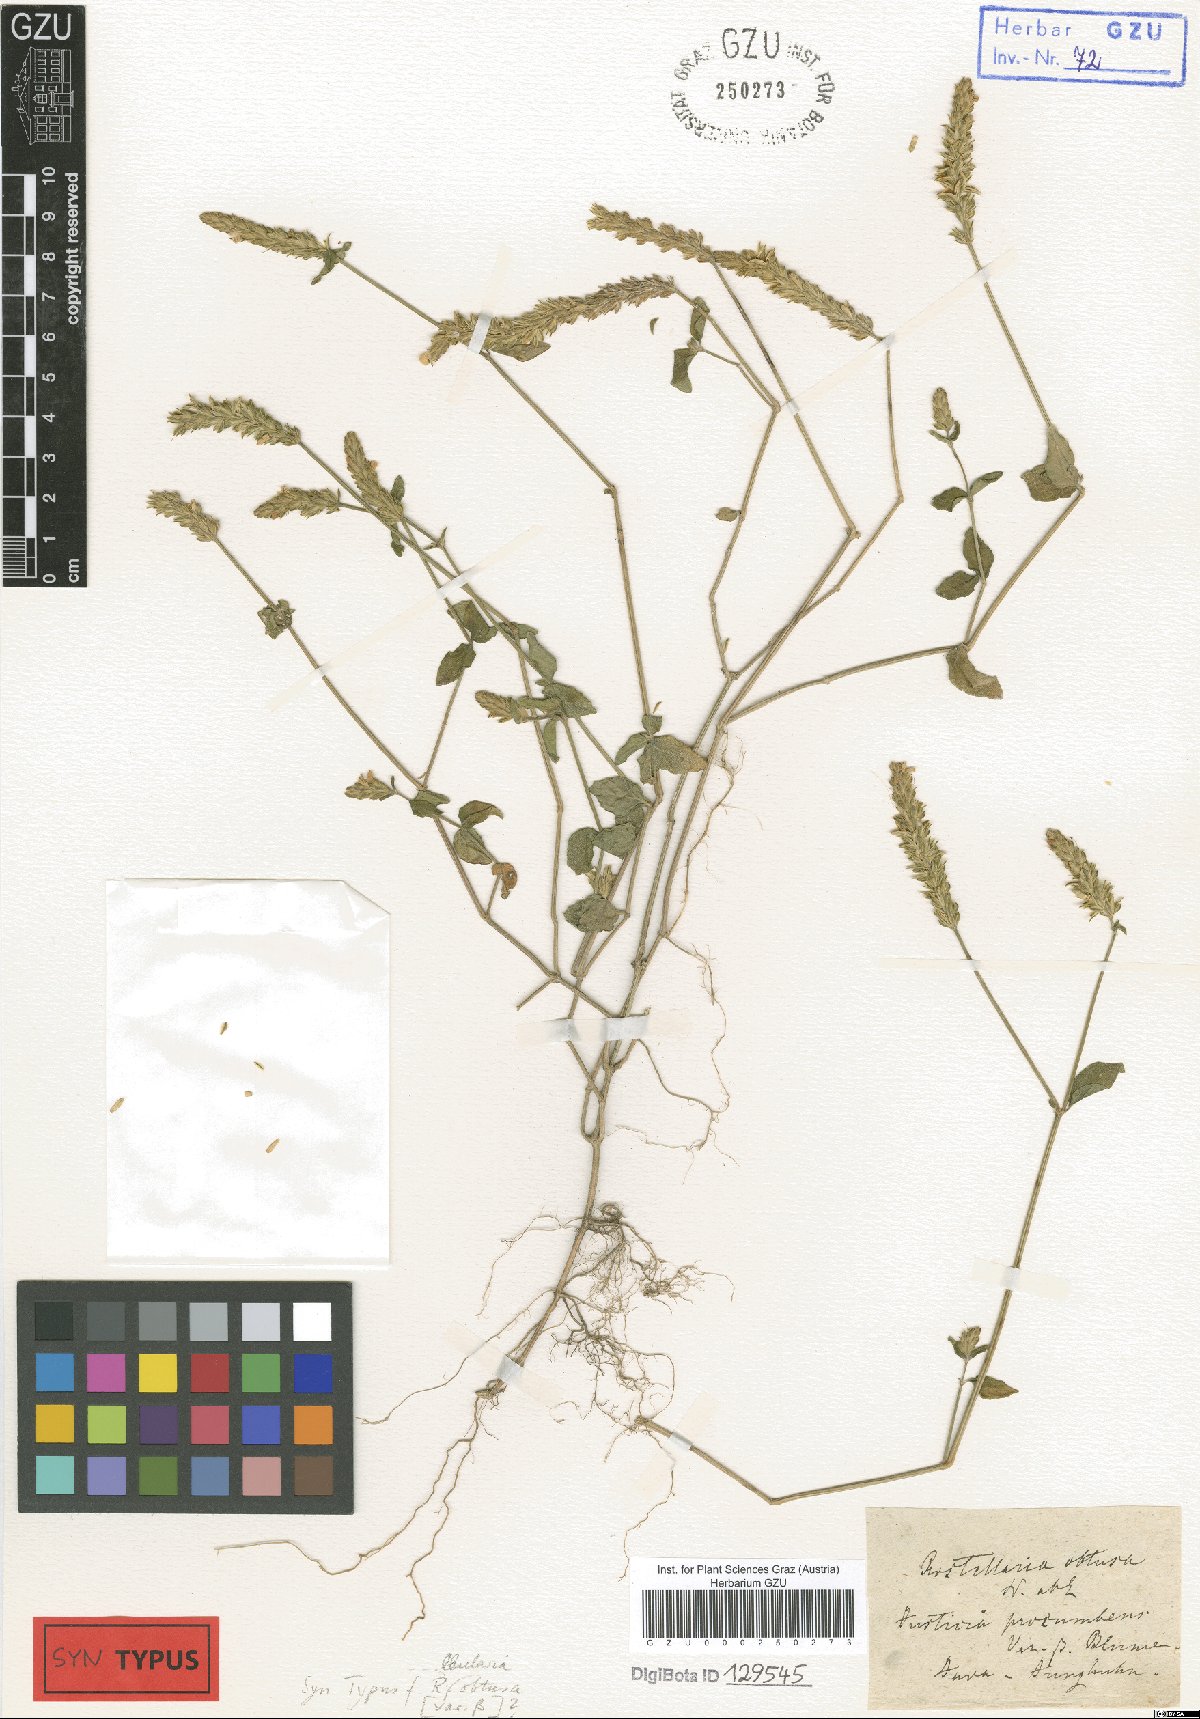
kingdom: Plantae
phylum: Tracheophyta
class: Magnoliopsida
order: Lamiales
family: Acanthaceae
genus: Rostellularia
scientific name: Rostellularia obtusa
